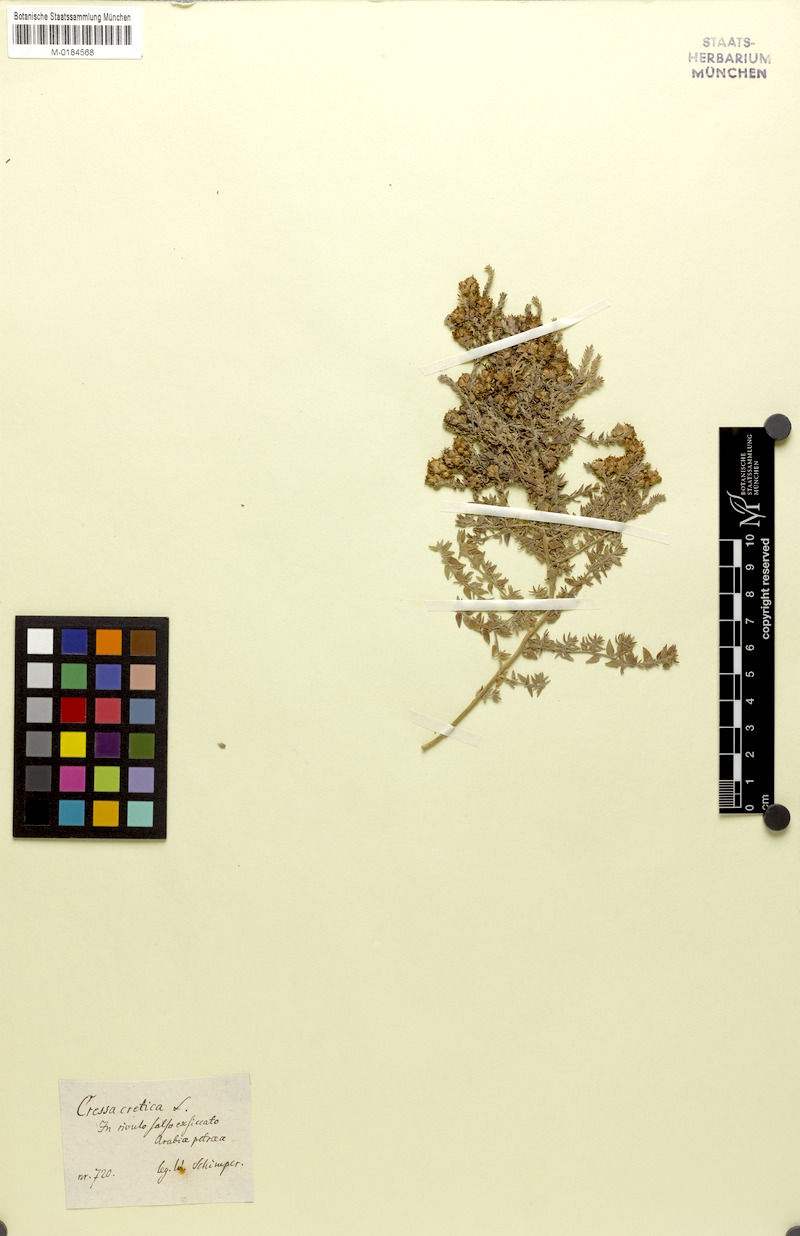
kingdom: Plantae
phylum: Tracheophyta
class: Magnoliopsida
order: Solanales
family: Convolvulaceae
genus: Cressa
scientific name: Cressa cretica
